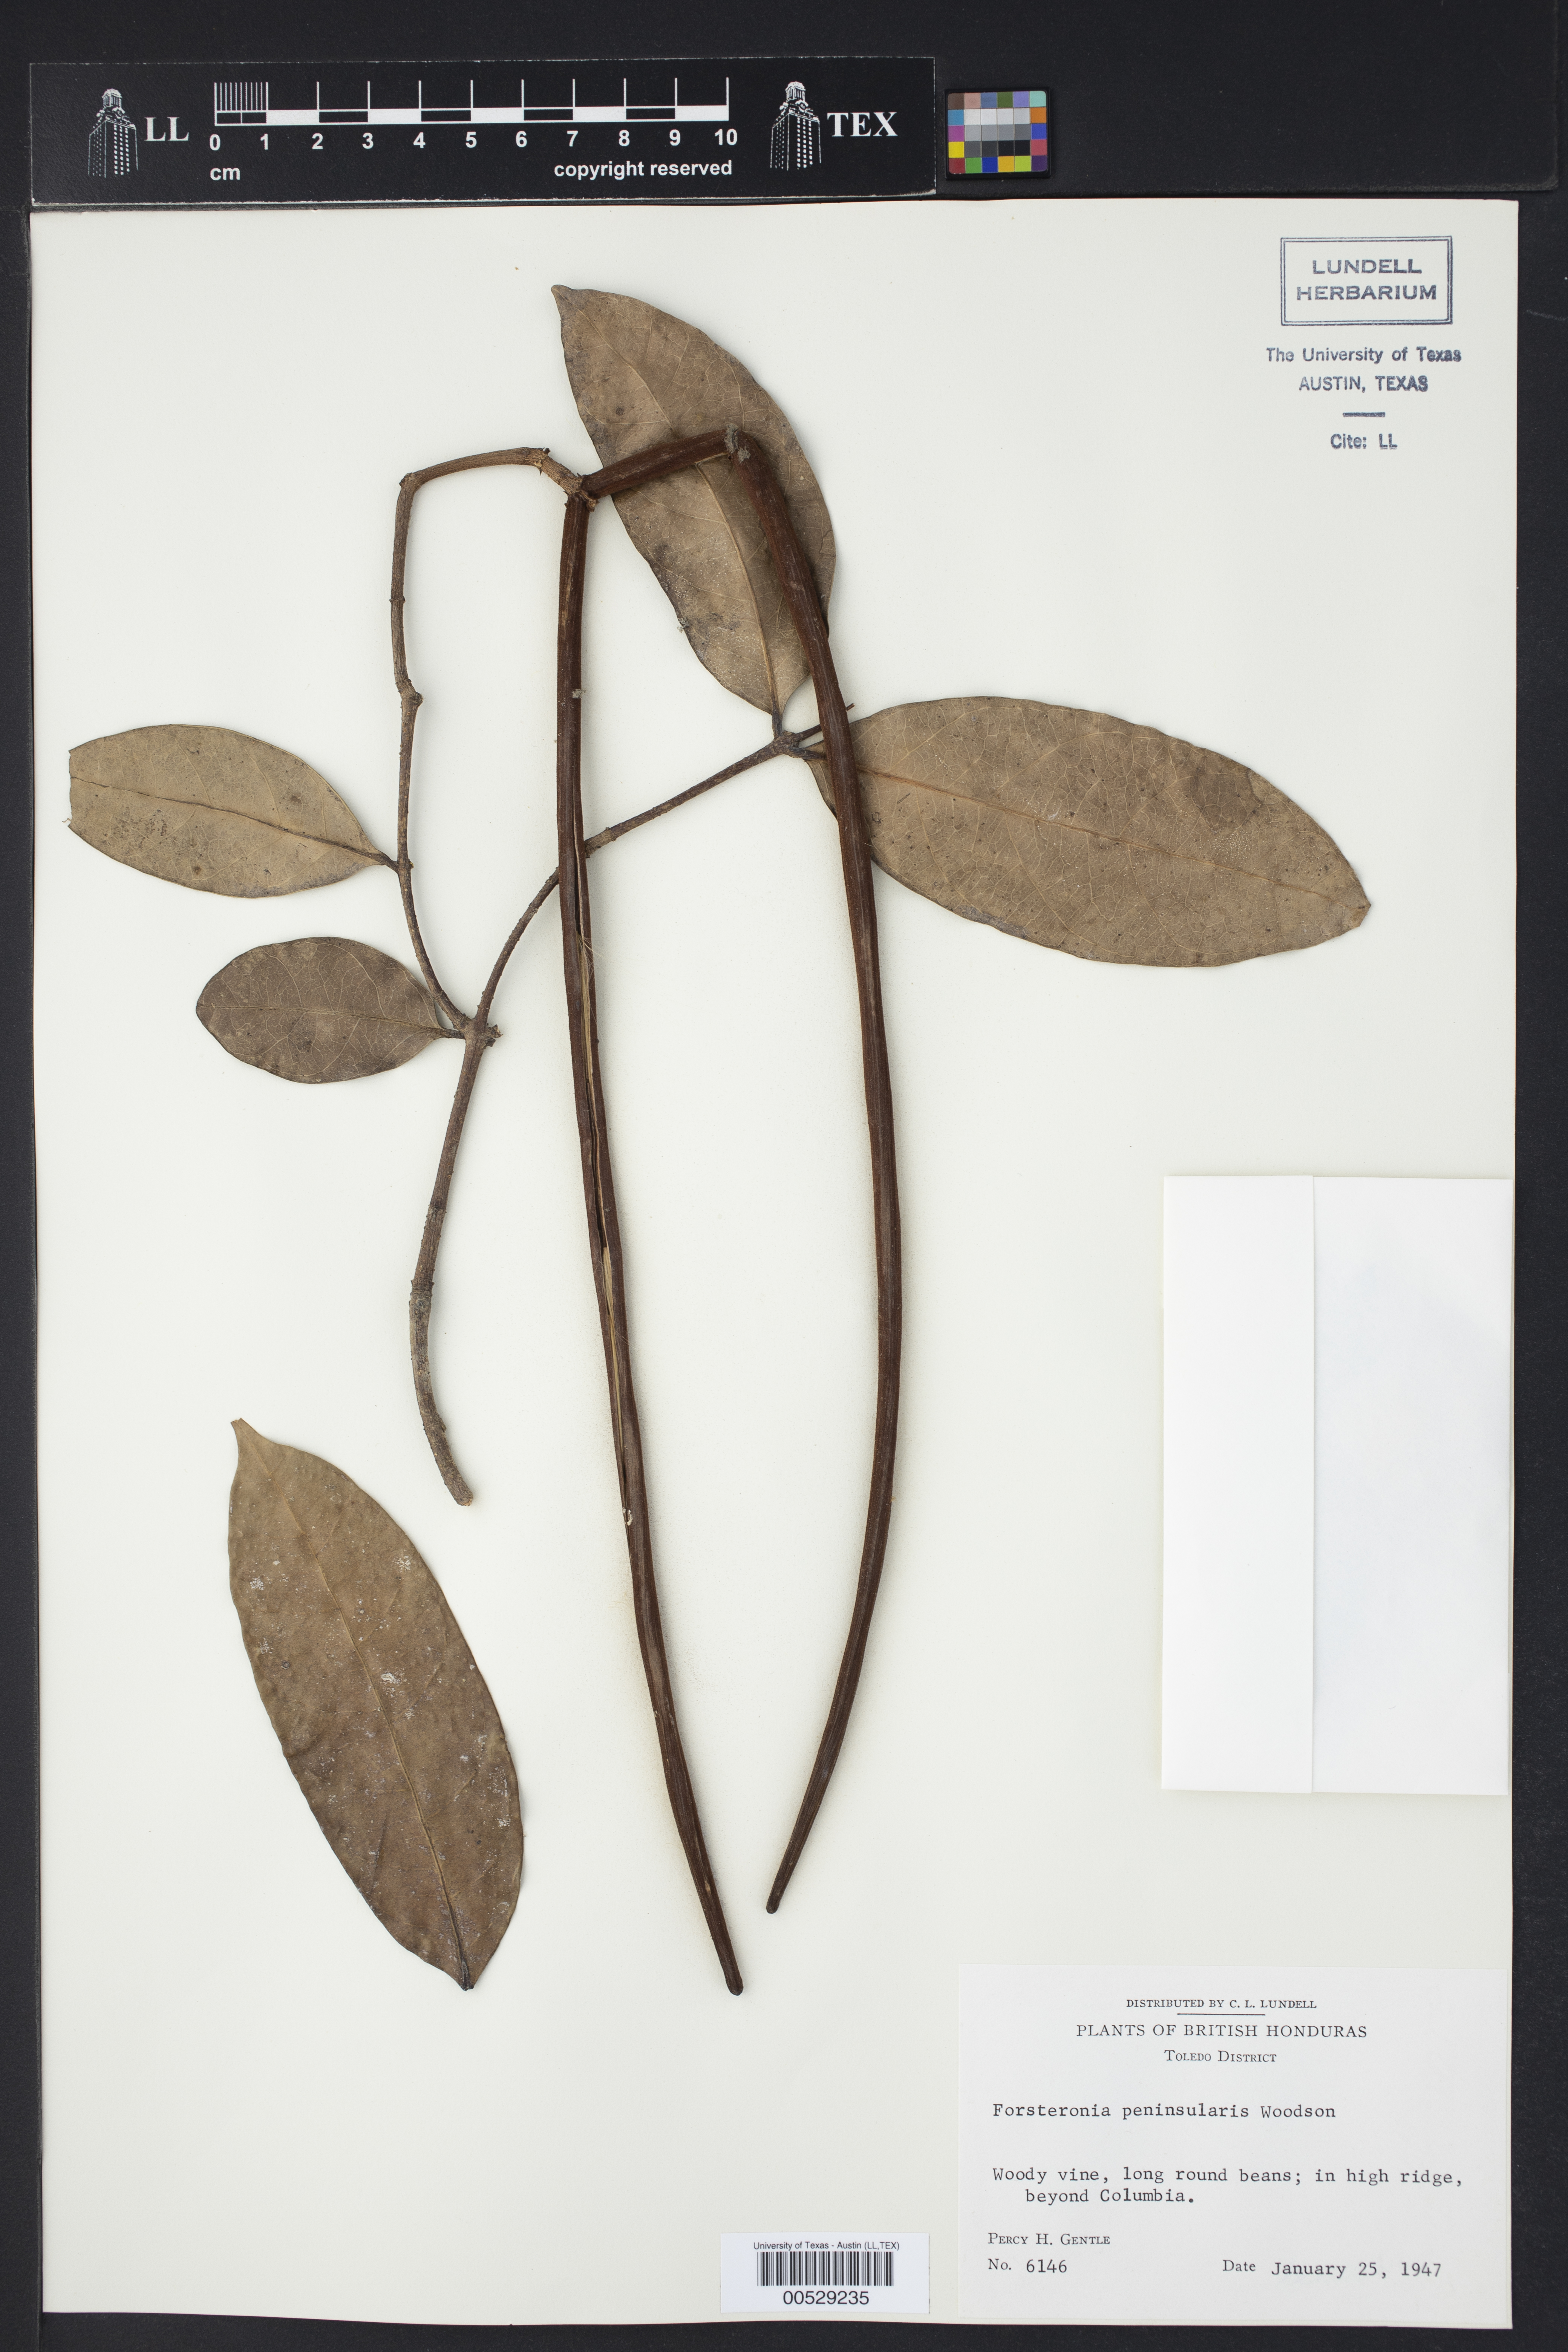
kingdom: Plantae
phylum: Tracheophyta
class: Magnoliopsida
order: Gentianales
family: Apocynaceae
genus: Pinochia
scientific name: Pinochia peninsularis
